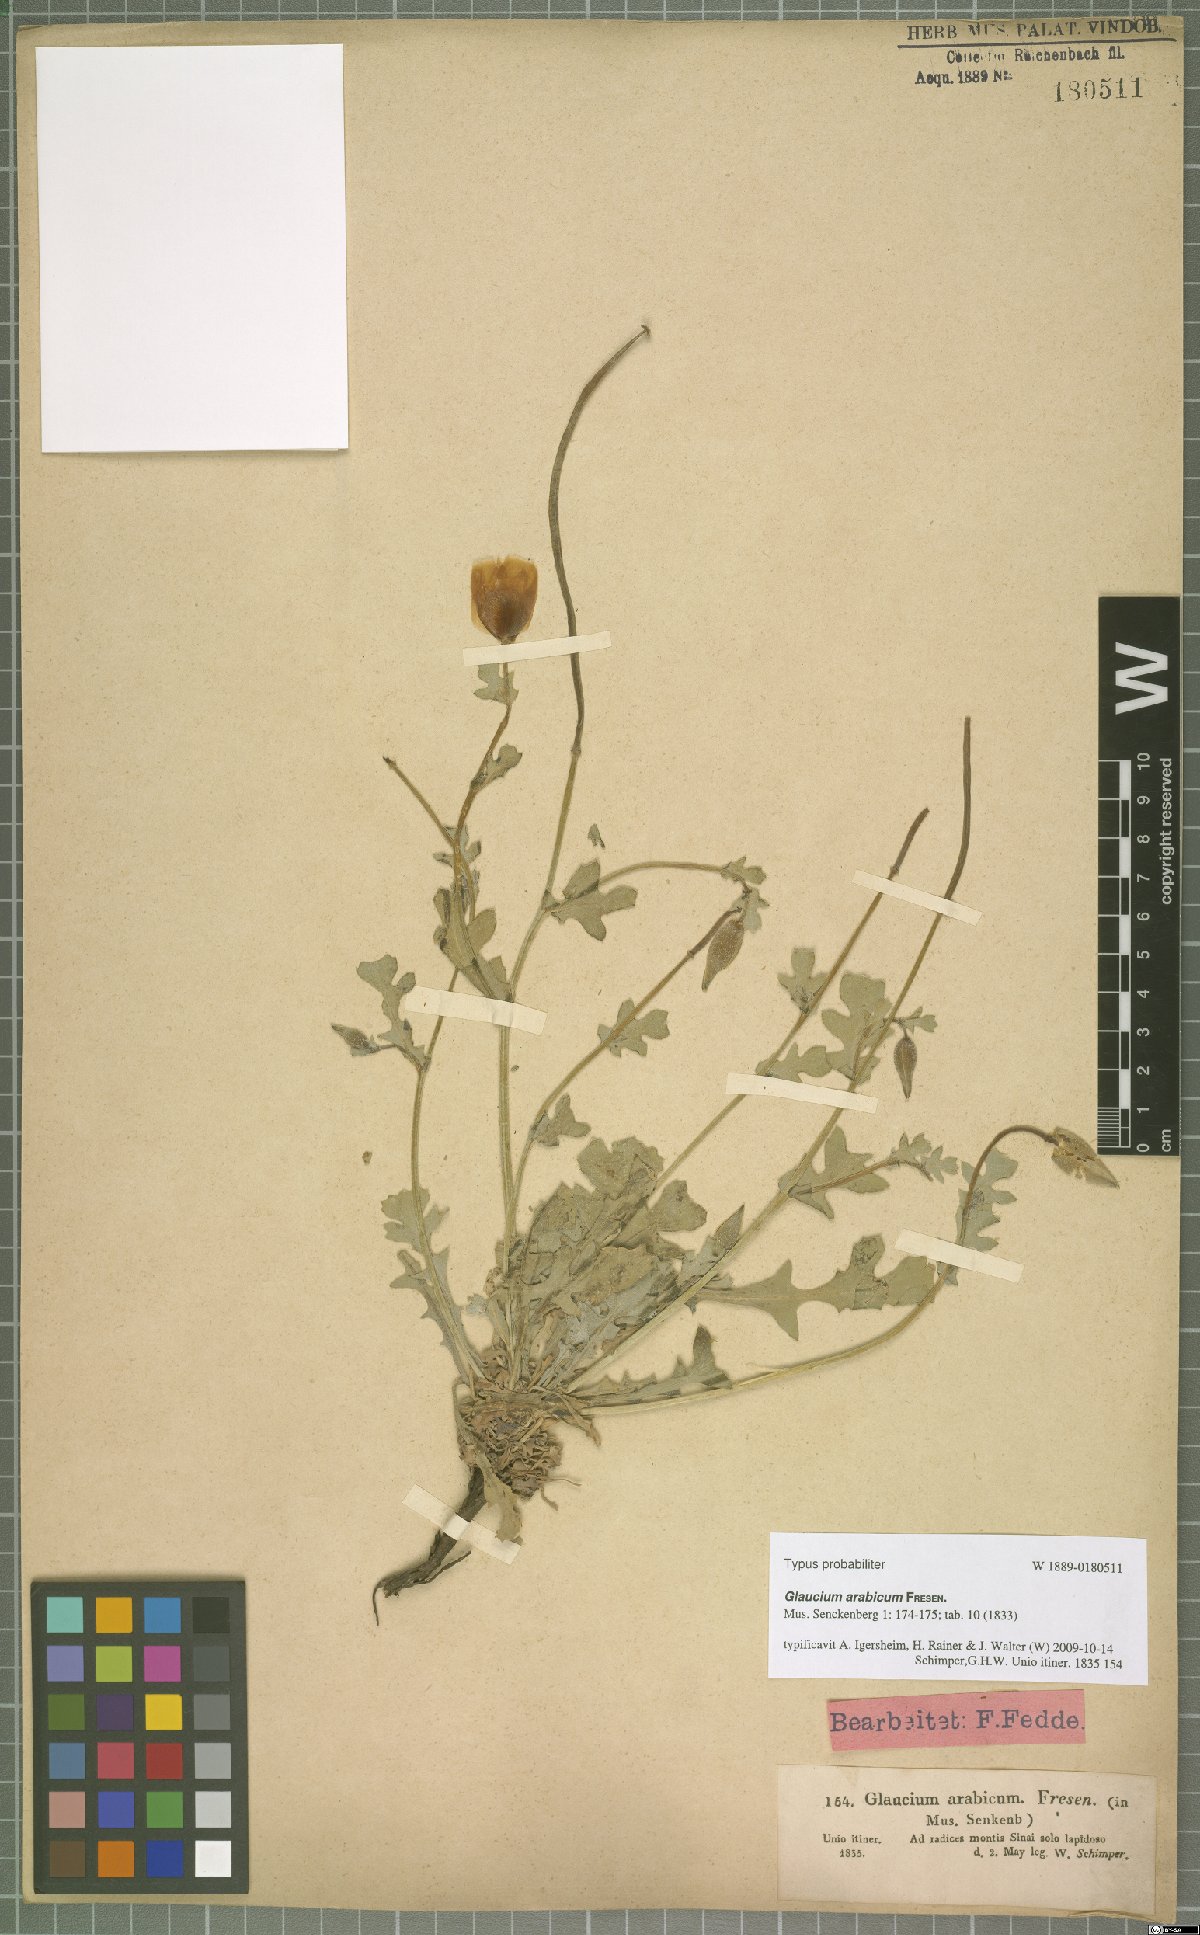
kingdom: Plantae
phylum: Tracheophyta
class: Magnoliopsida
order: Ranunculales
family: Papaveraceae
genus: Glaucium
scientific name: Glaucium arabicum
